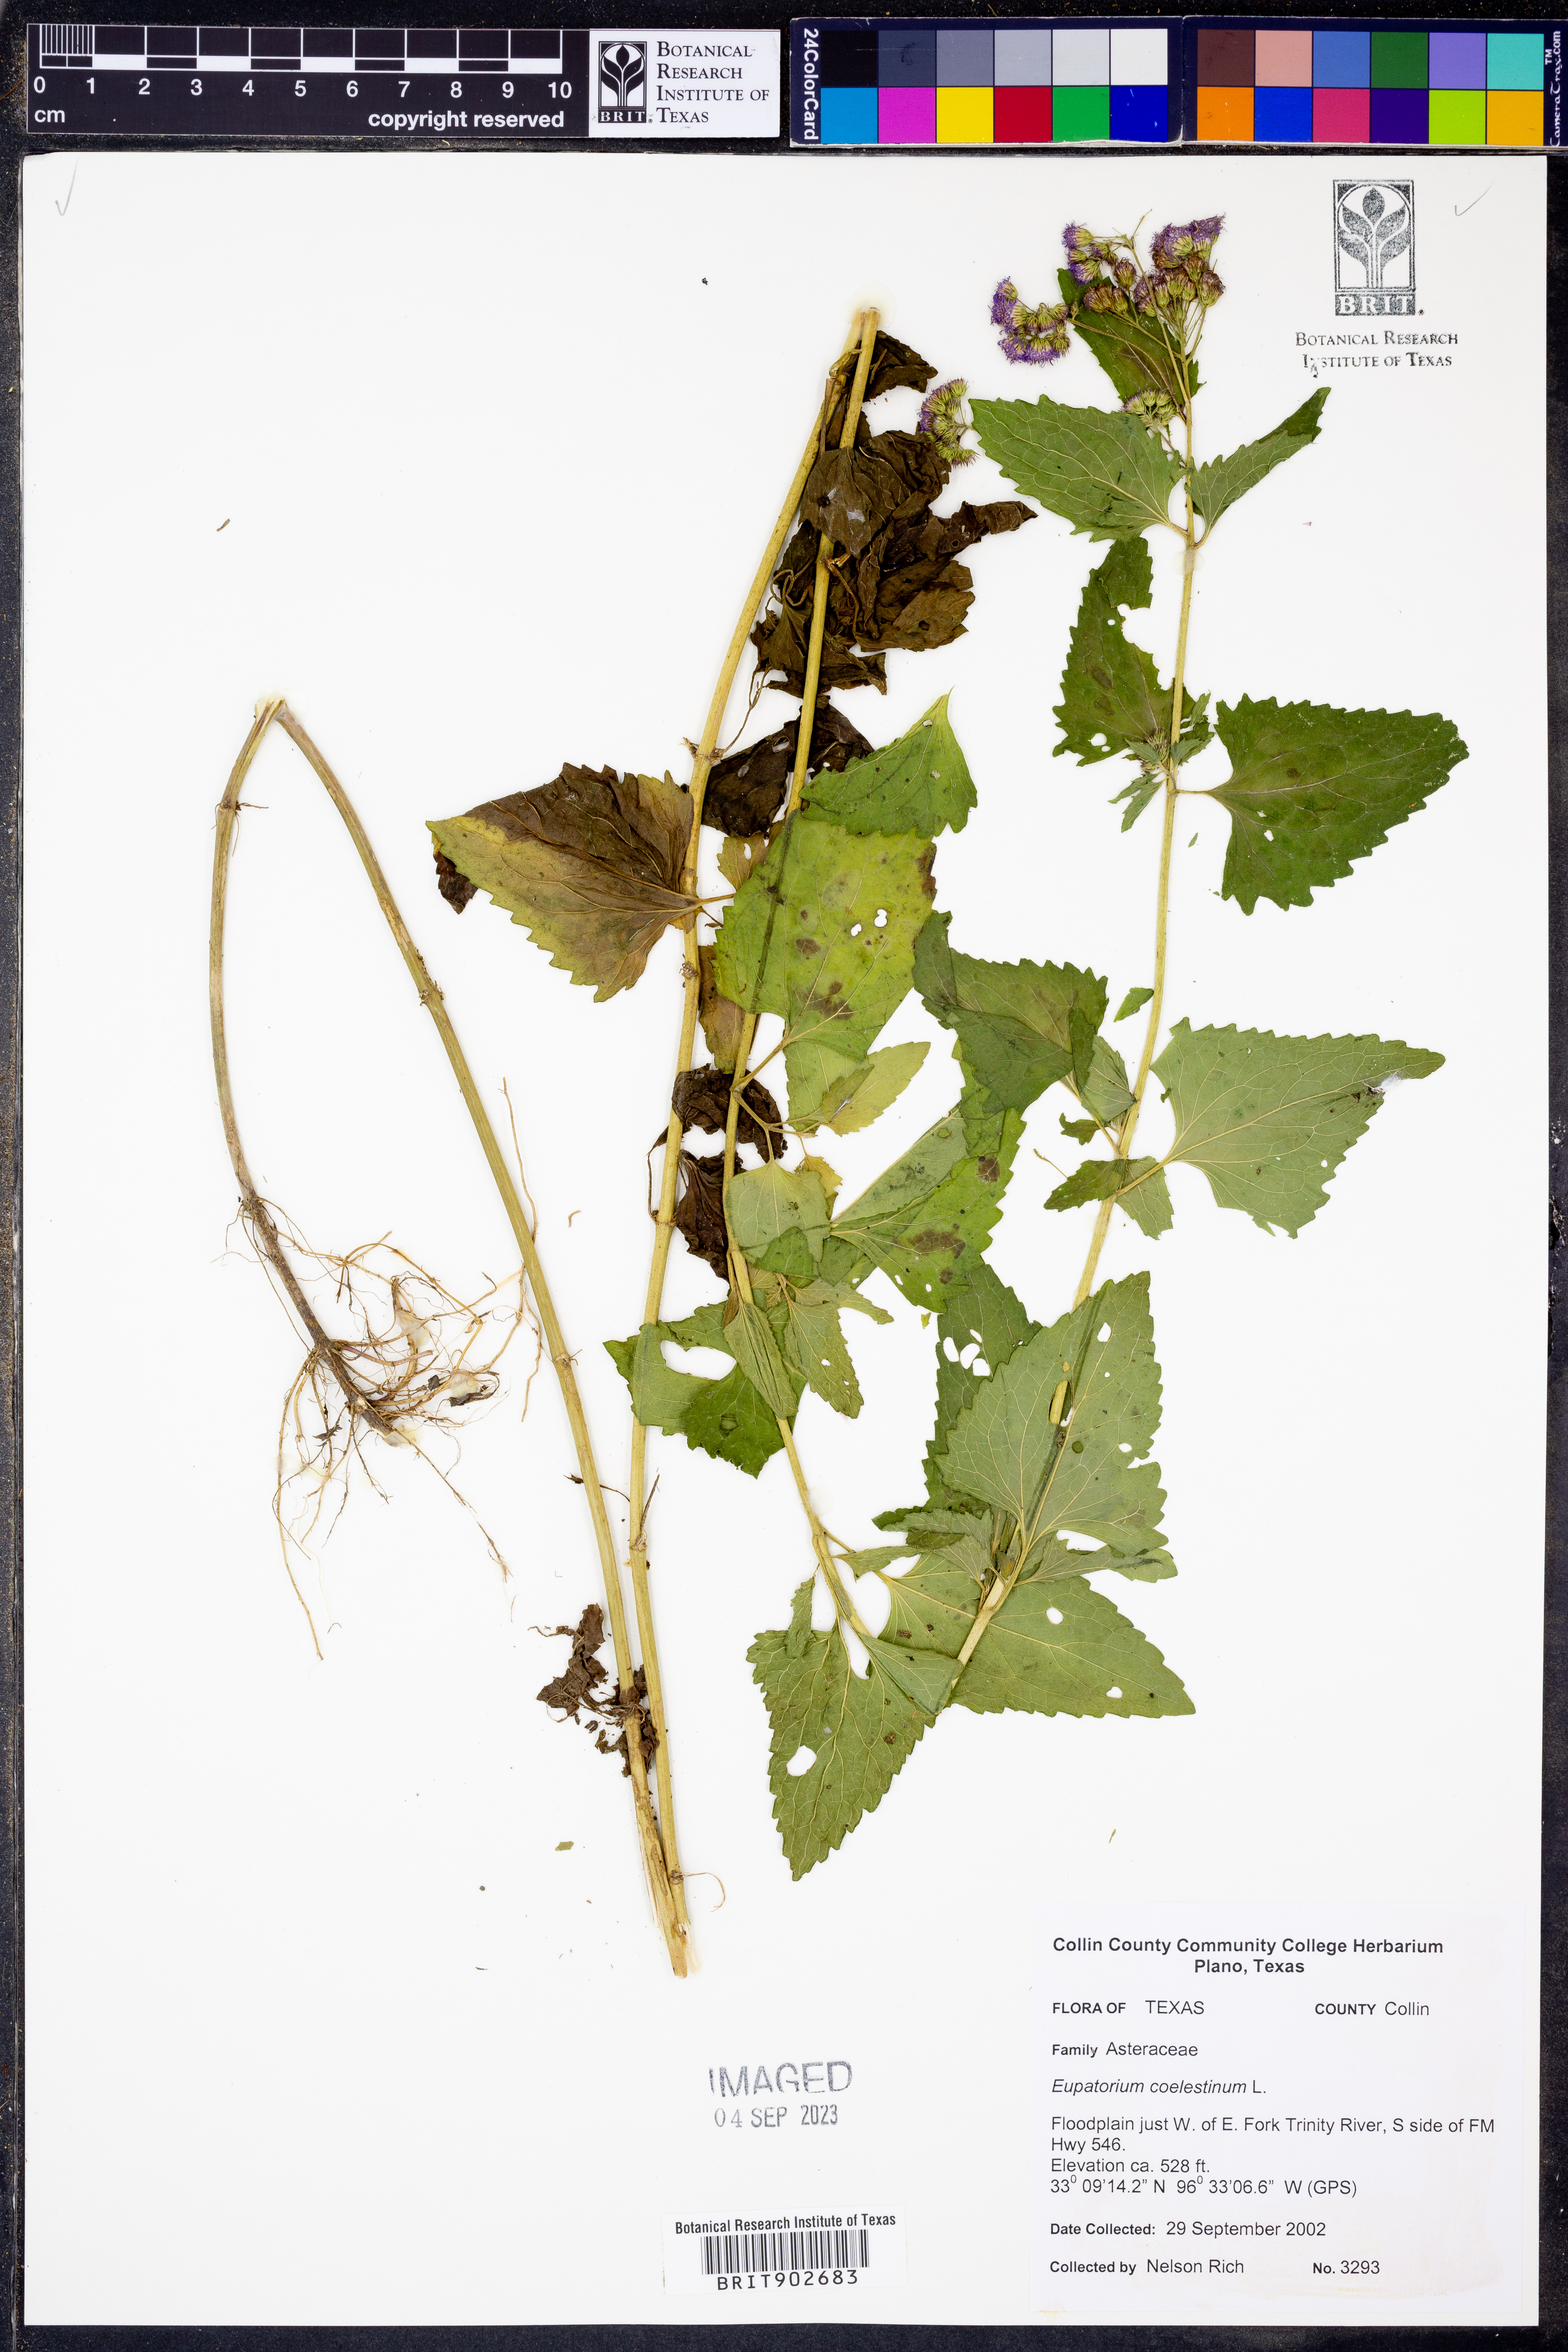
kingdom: Plantae
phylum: Tracheophyta
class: Magnoliopsida
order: Asterales
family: Asteraceae
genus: Conoclinium
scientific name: Conoclinium coelestinum
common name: Blue mistflower
